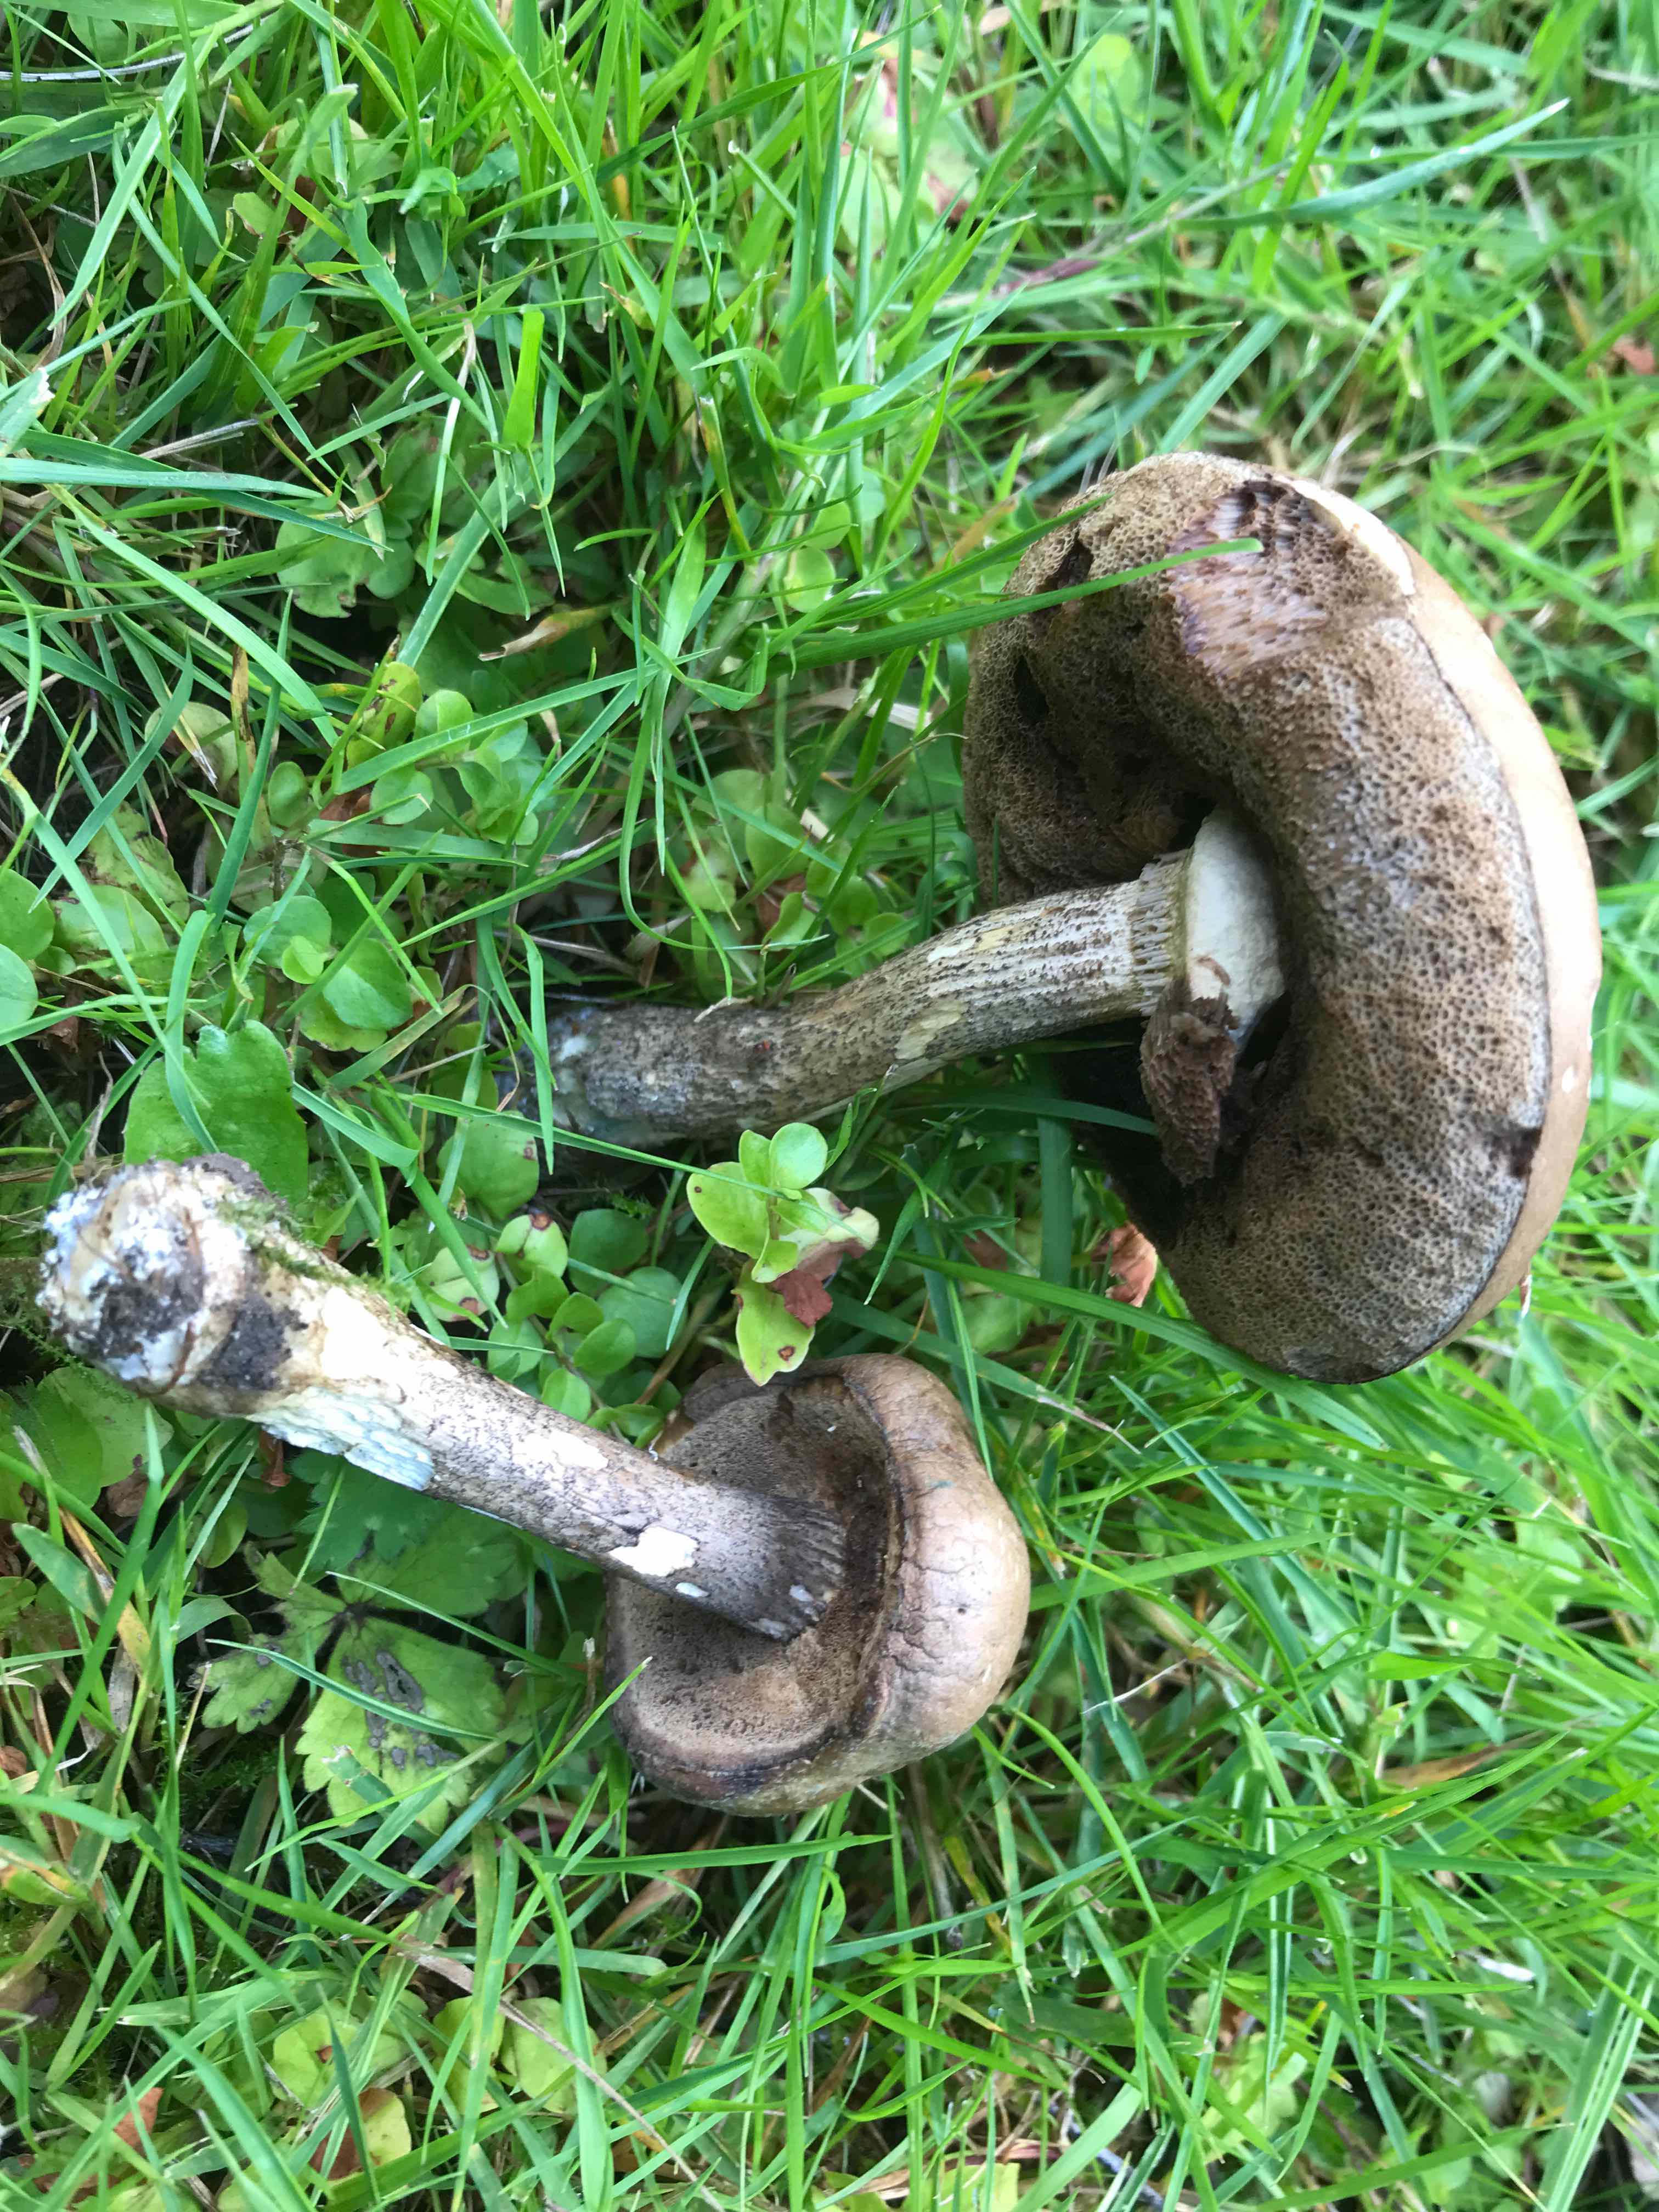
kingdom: Fungi
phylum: Basidiomycota
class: Agaricomycetes
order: Boletales
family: Boletaceae
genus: Leccinum
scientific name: Leccinum scabrum
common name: brun skælrørhat
